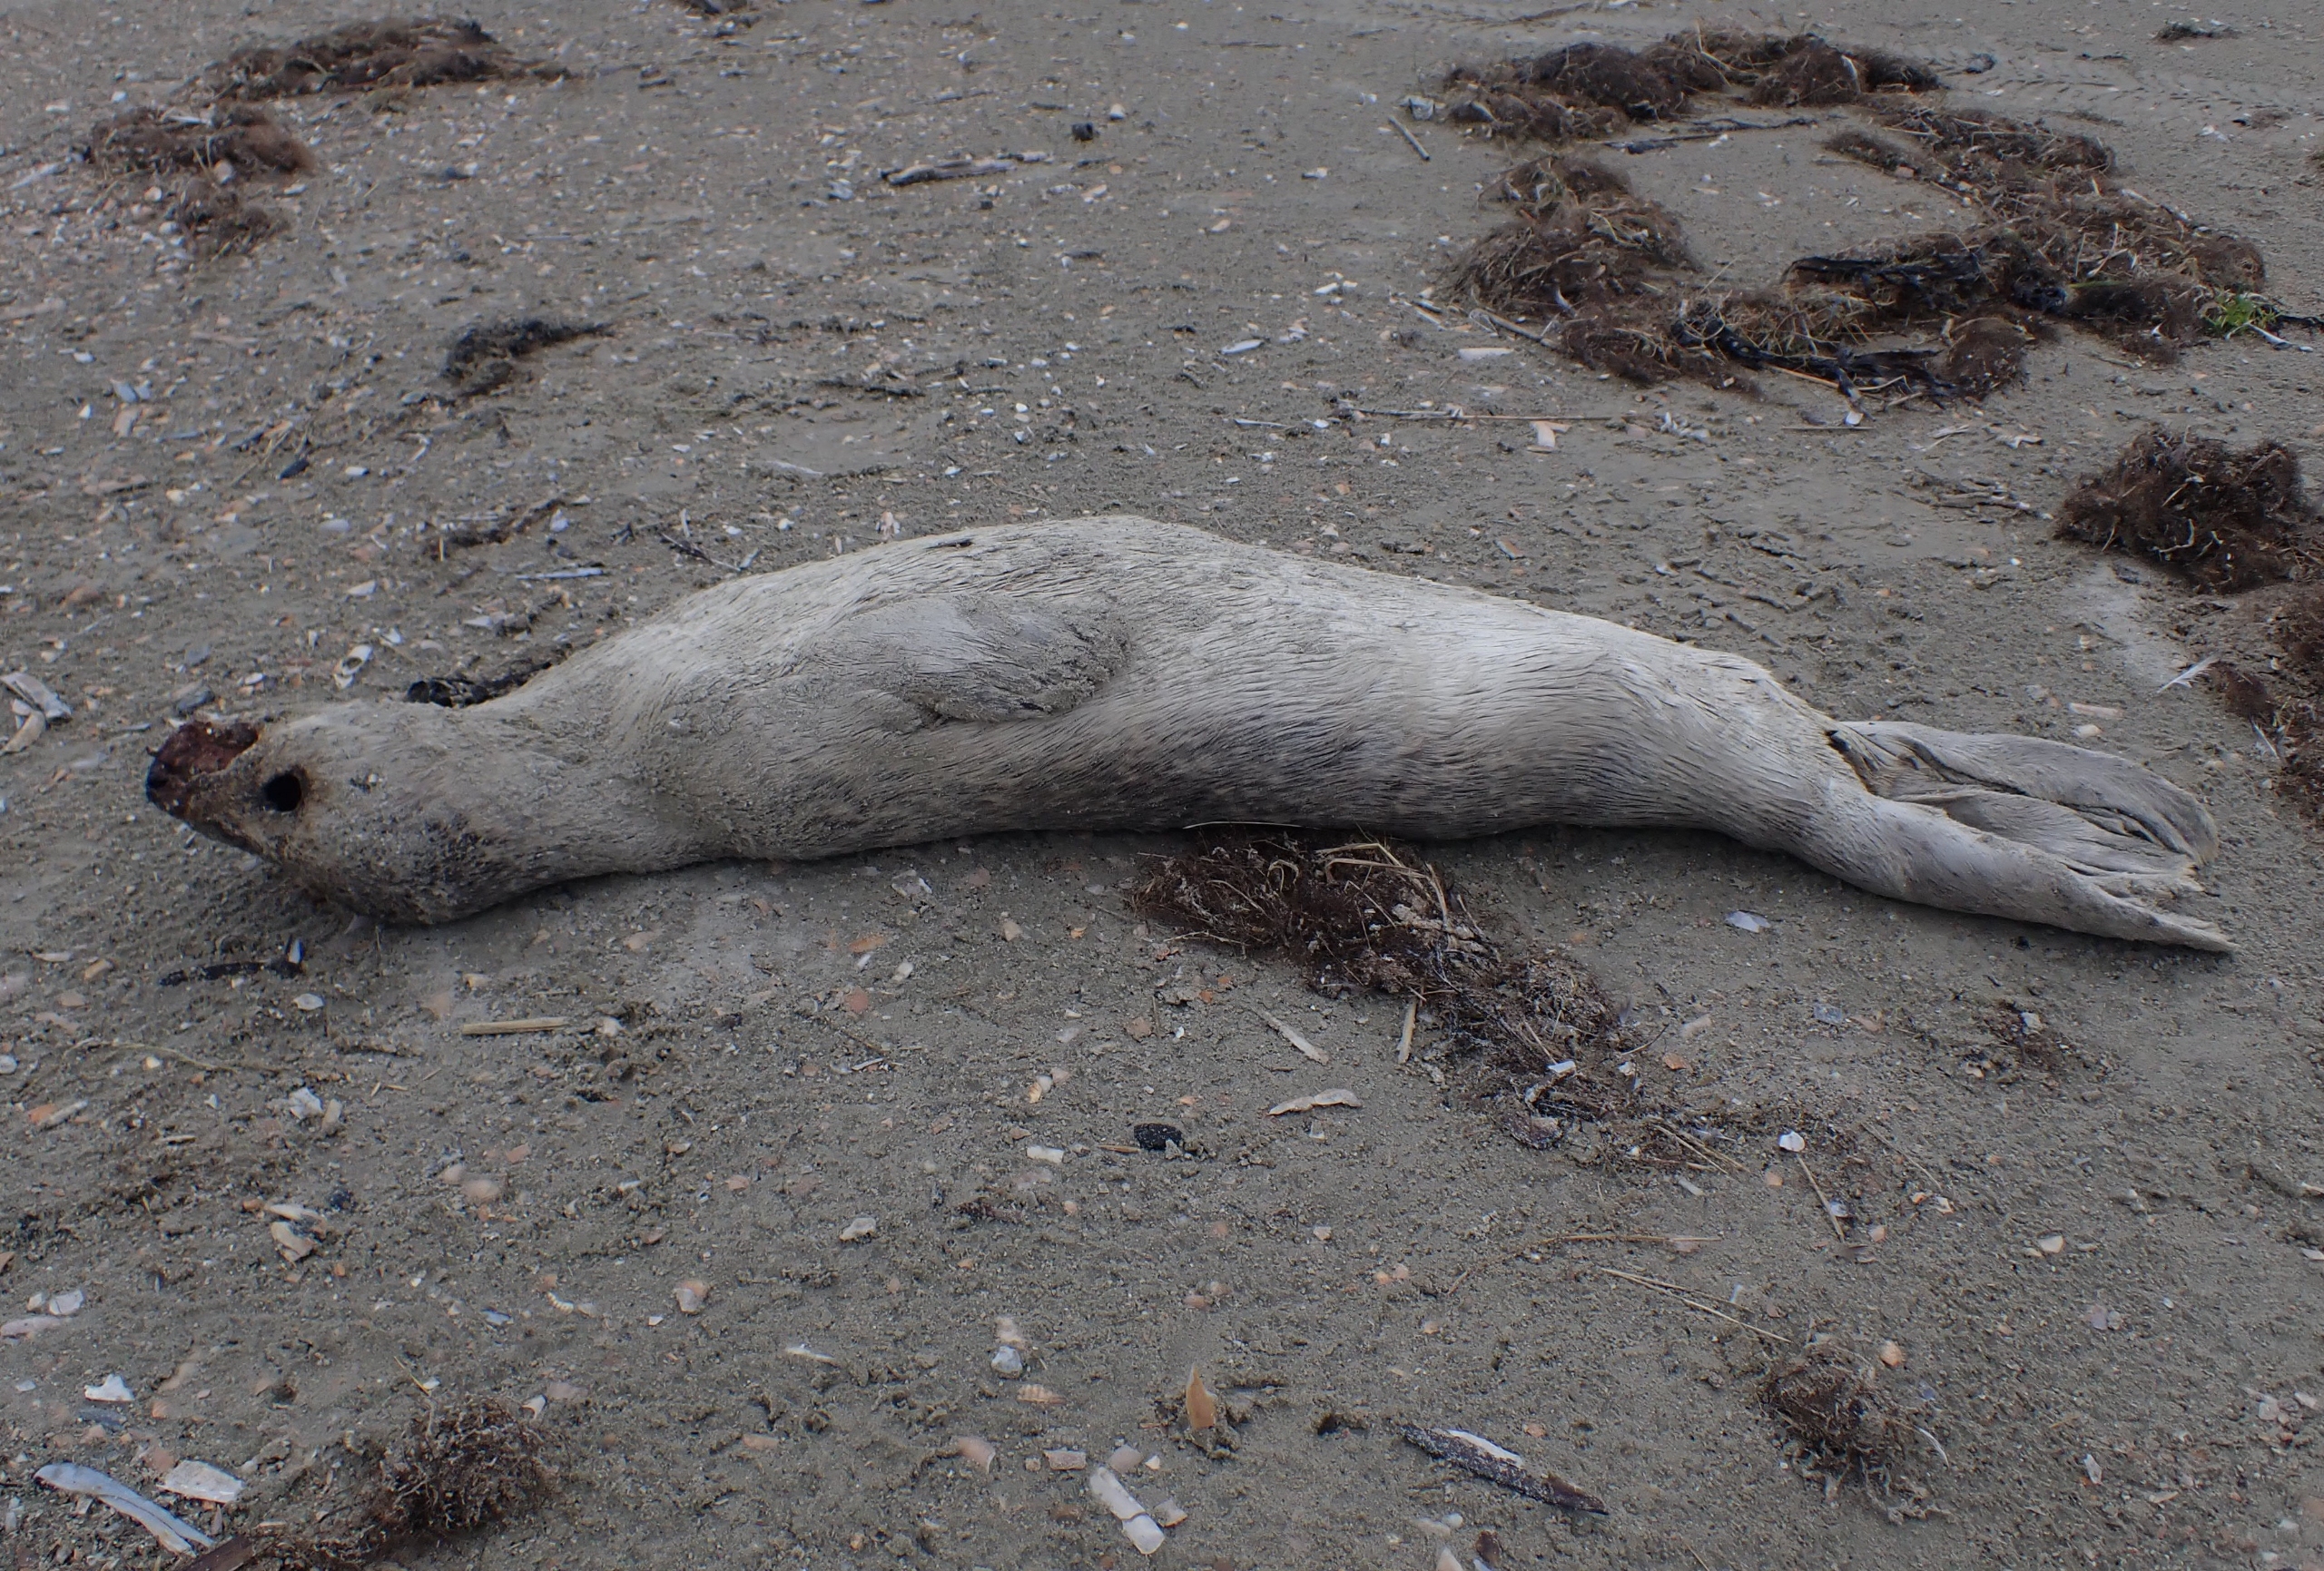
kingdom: Animalia
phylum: Chordata
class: Mammalia
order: Carnivora
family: Phocidae
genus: Phoca
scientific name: Phoca vitulina
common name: Spættet sæl
